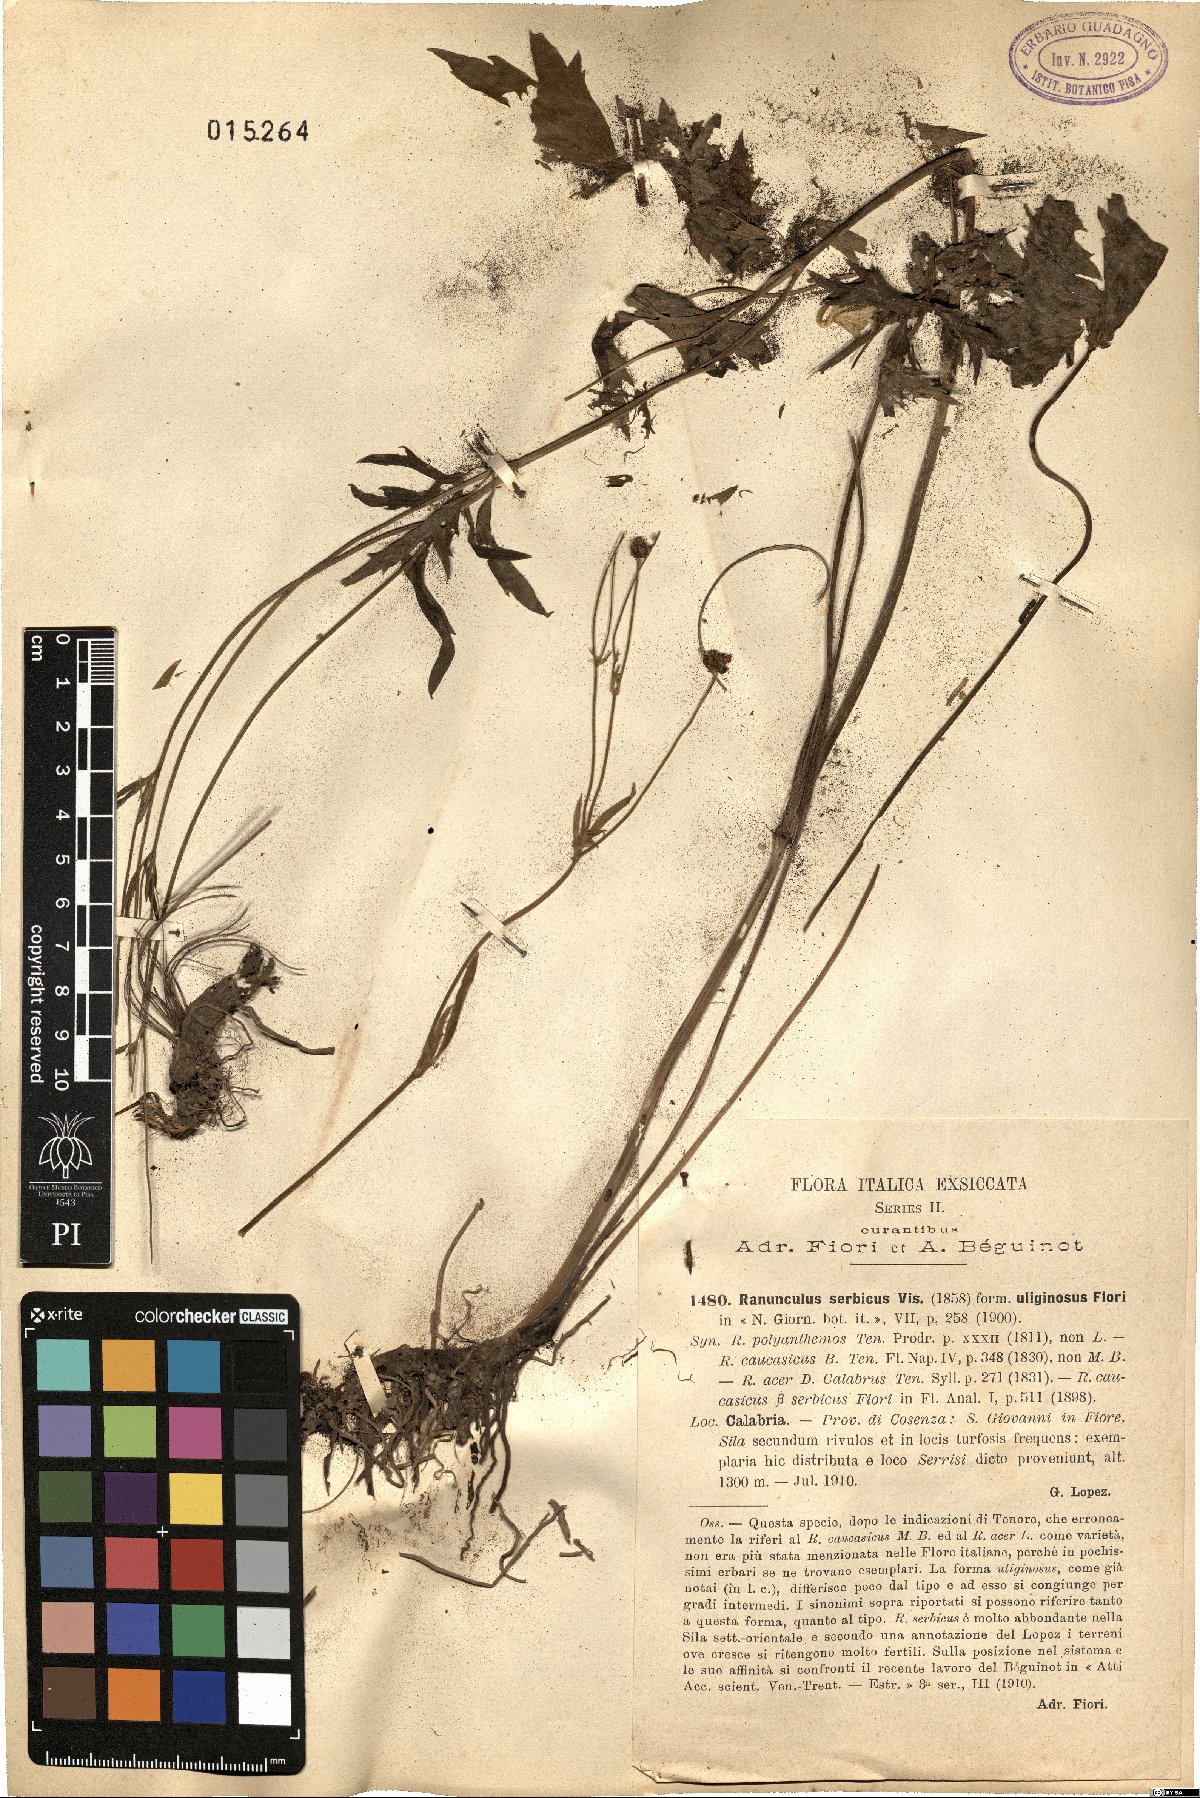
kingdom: Plantae
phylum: Tracheophyta
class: Magnoliopsida
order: Ranunculales
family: Ranunculaceae
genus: Ranunculus
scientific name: Ranunculus serbicus
